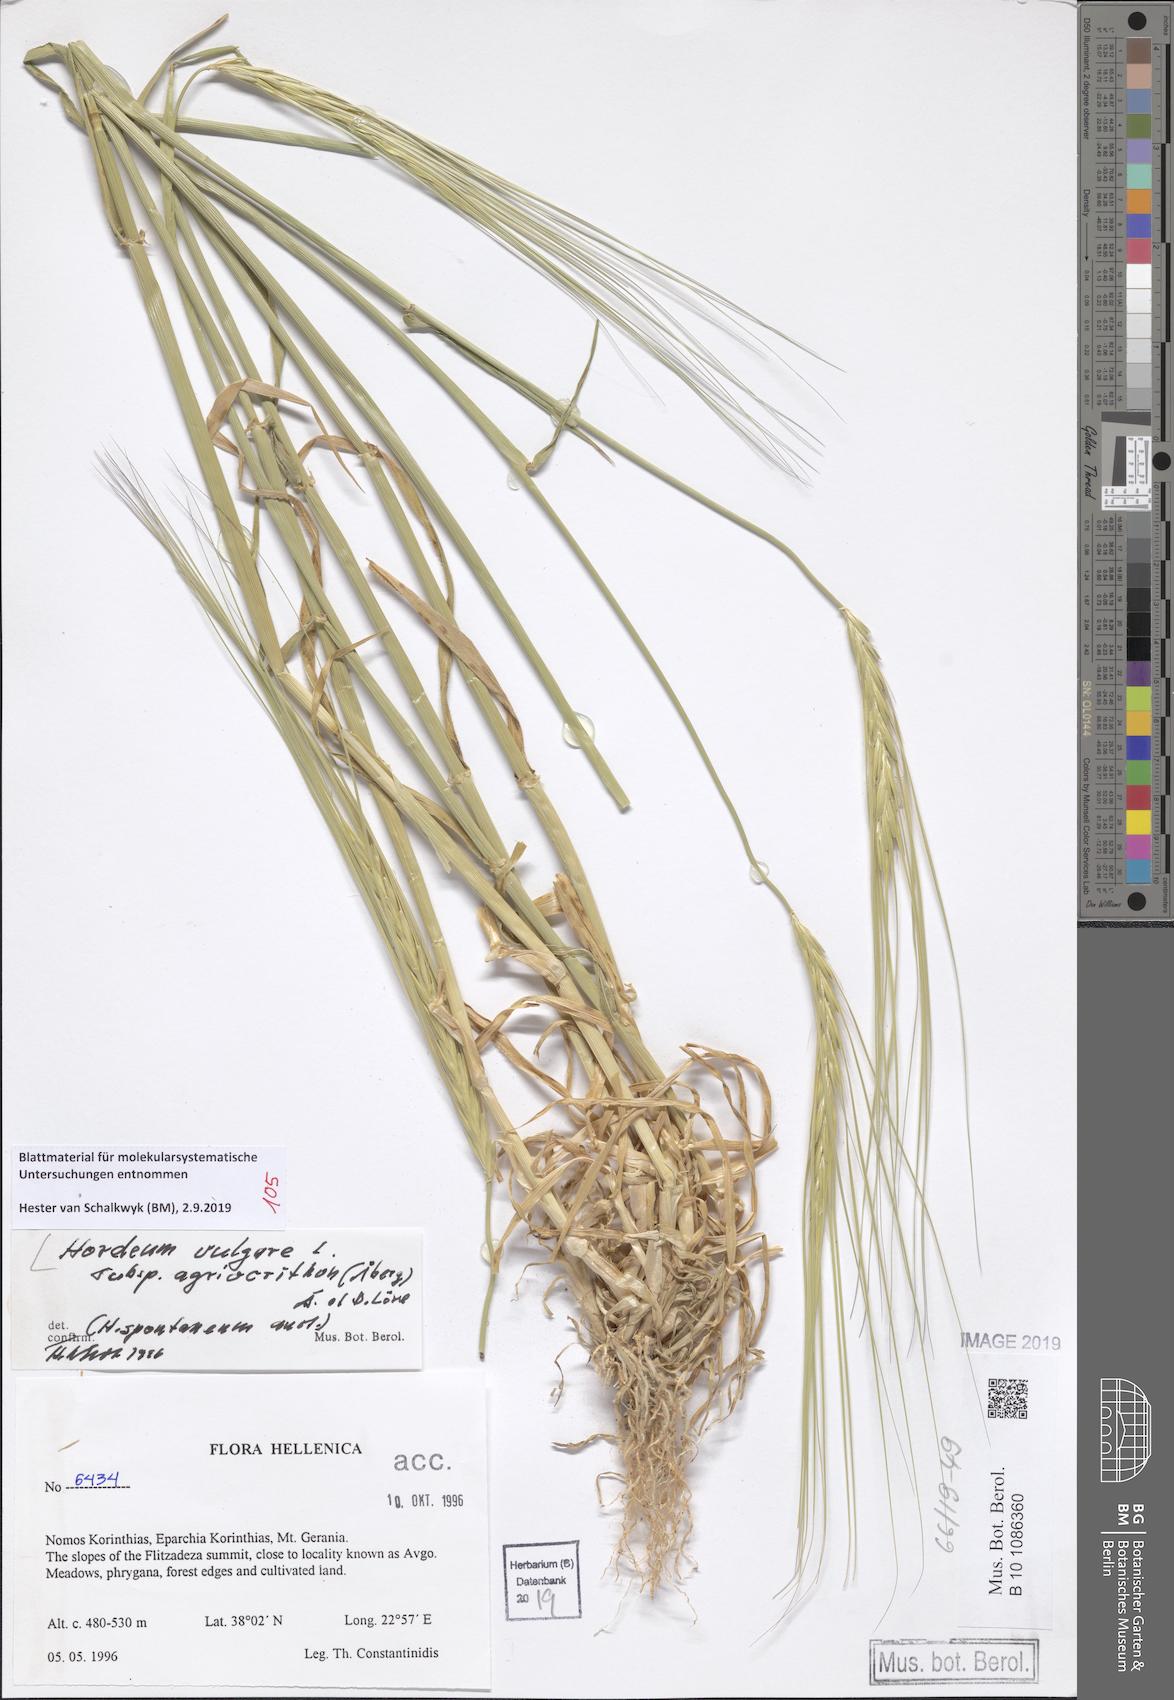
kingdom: Plantae
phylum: Tracheophyta
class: Liliopsida
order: Poales
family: Poaceae
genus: Hordeum
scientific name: Hordeum spontaneum
